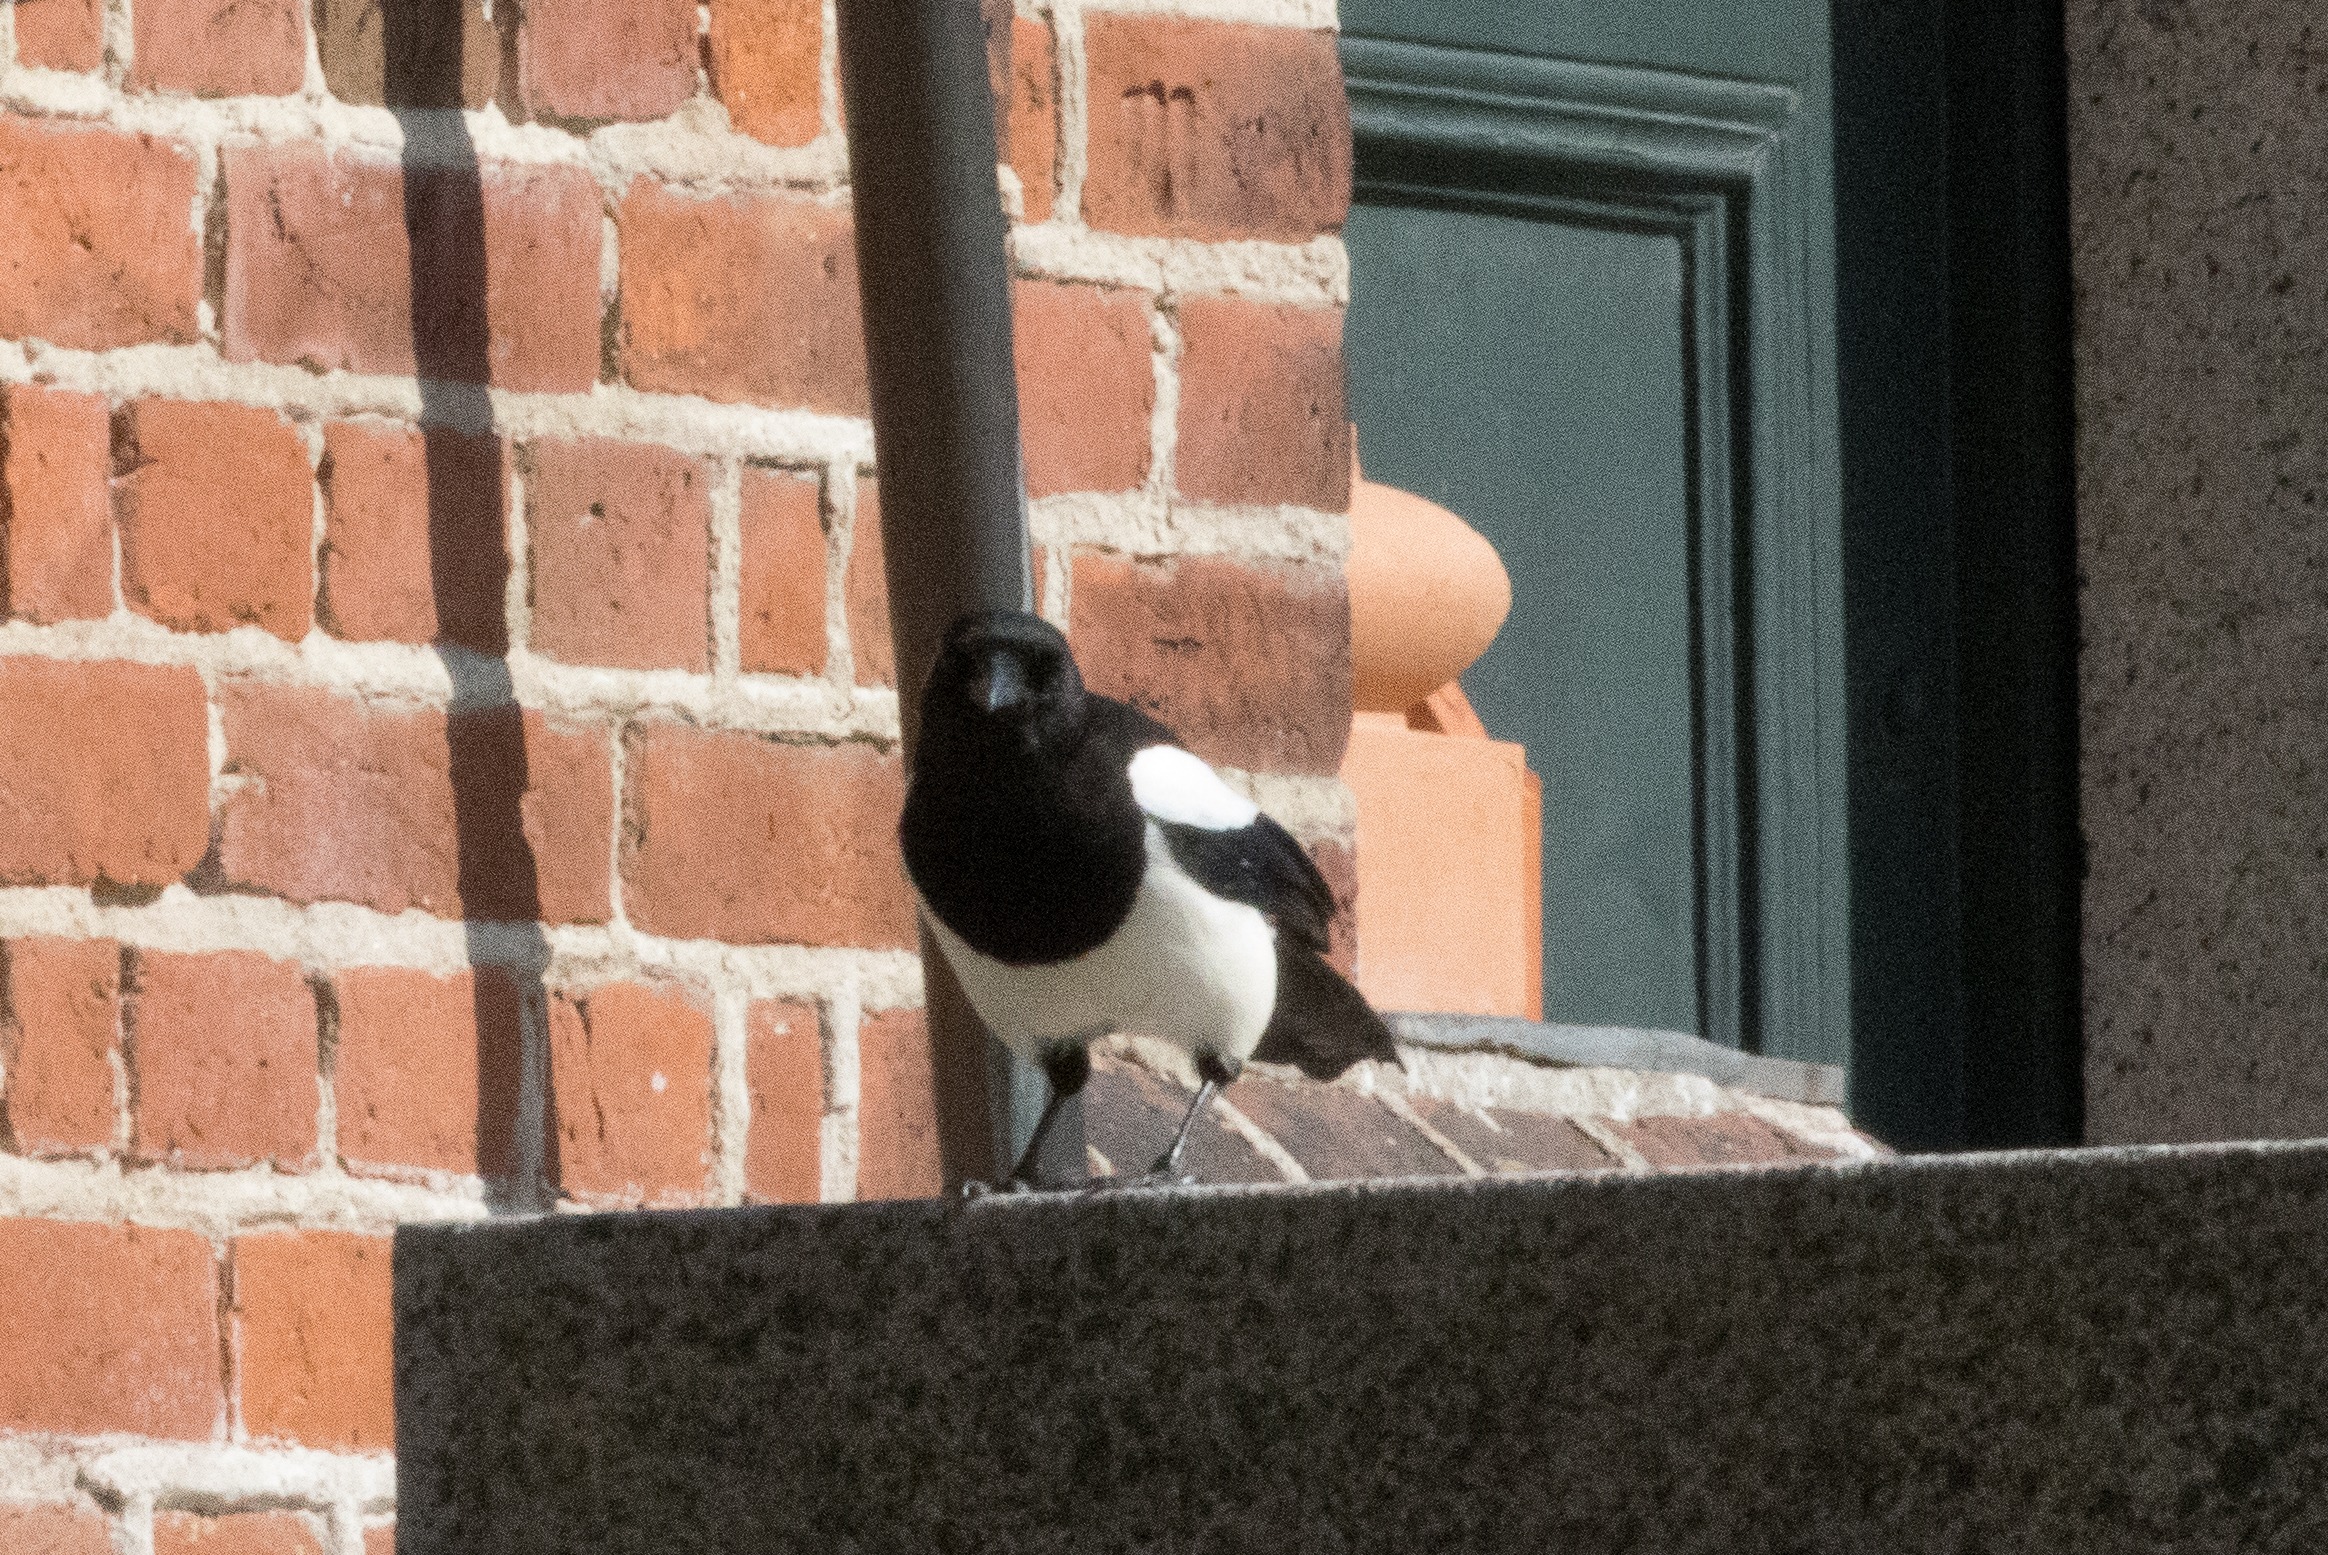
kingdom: Animalia
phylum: Chordata
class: Aves
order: Passeriformes
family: Corvidae
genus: Pica
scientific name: Pica pica
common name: Husskade
